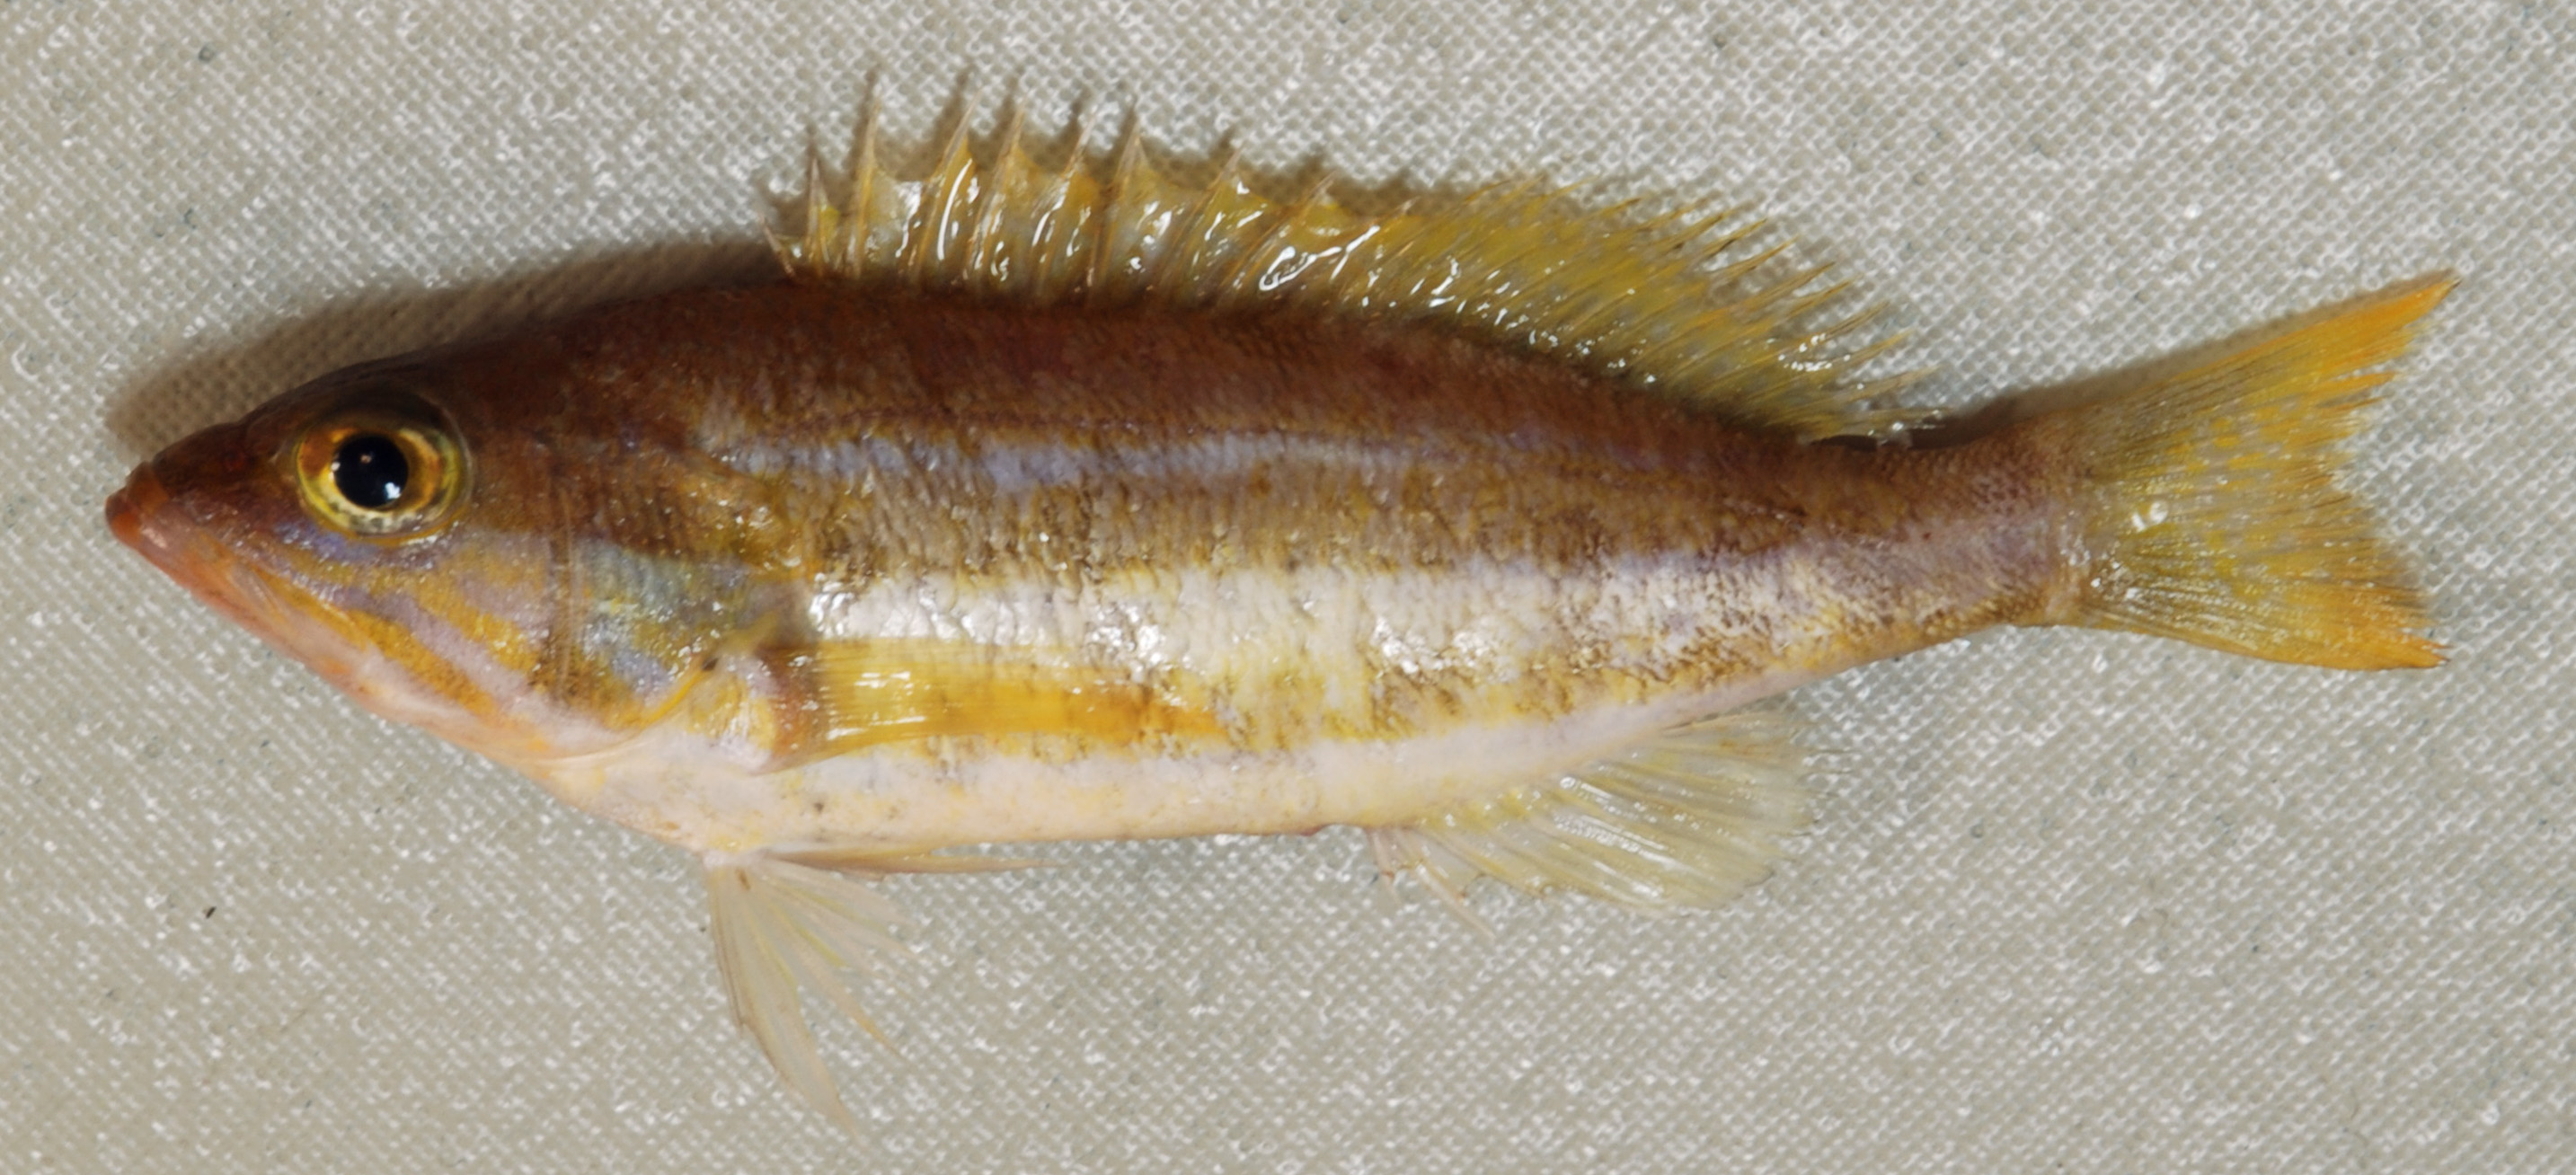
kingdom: Animalia
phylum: Chordata
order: Perciformes
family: Serranidae
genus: Epinephelus
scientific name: Epinephelus magniscuttis
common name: Speckled grouper
